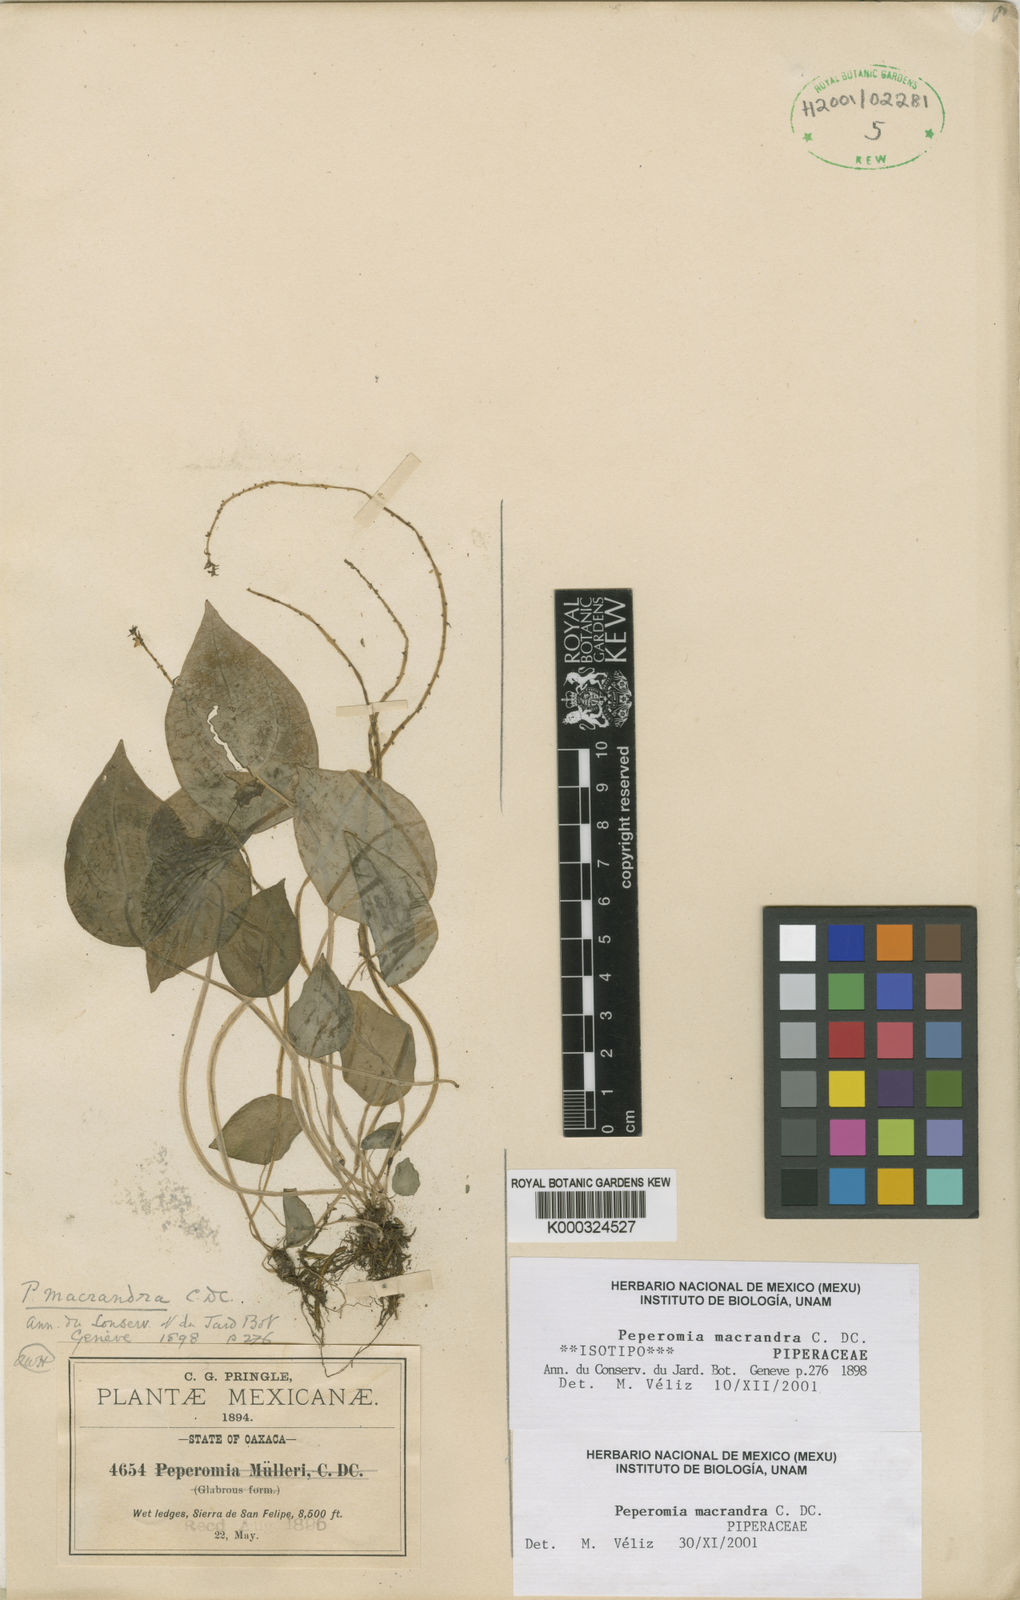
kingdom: Plantae
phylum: Tracheophyta
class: Magnoliopsida
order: Piperales
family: Piperaceae
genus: Peperomia
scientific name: Peperomia macrandra
